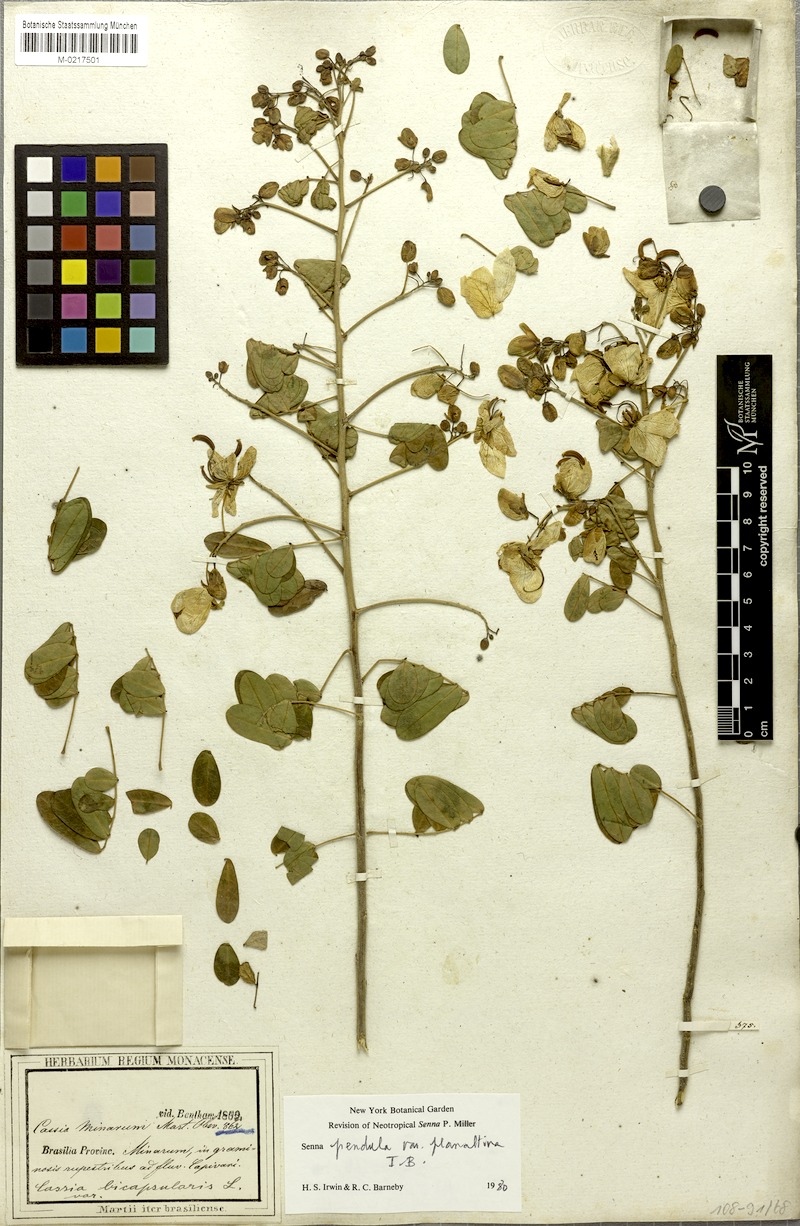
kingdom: Plantae
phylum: Tracheophyta
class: Magnoliopsida
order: Fabales
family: Fabaceae
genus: Senna
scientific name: Senna pendula
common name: Easter cassia
